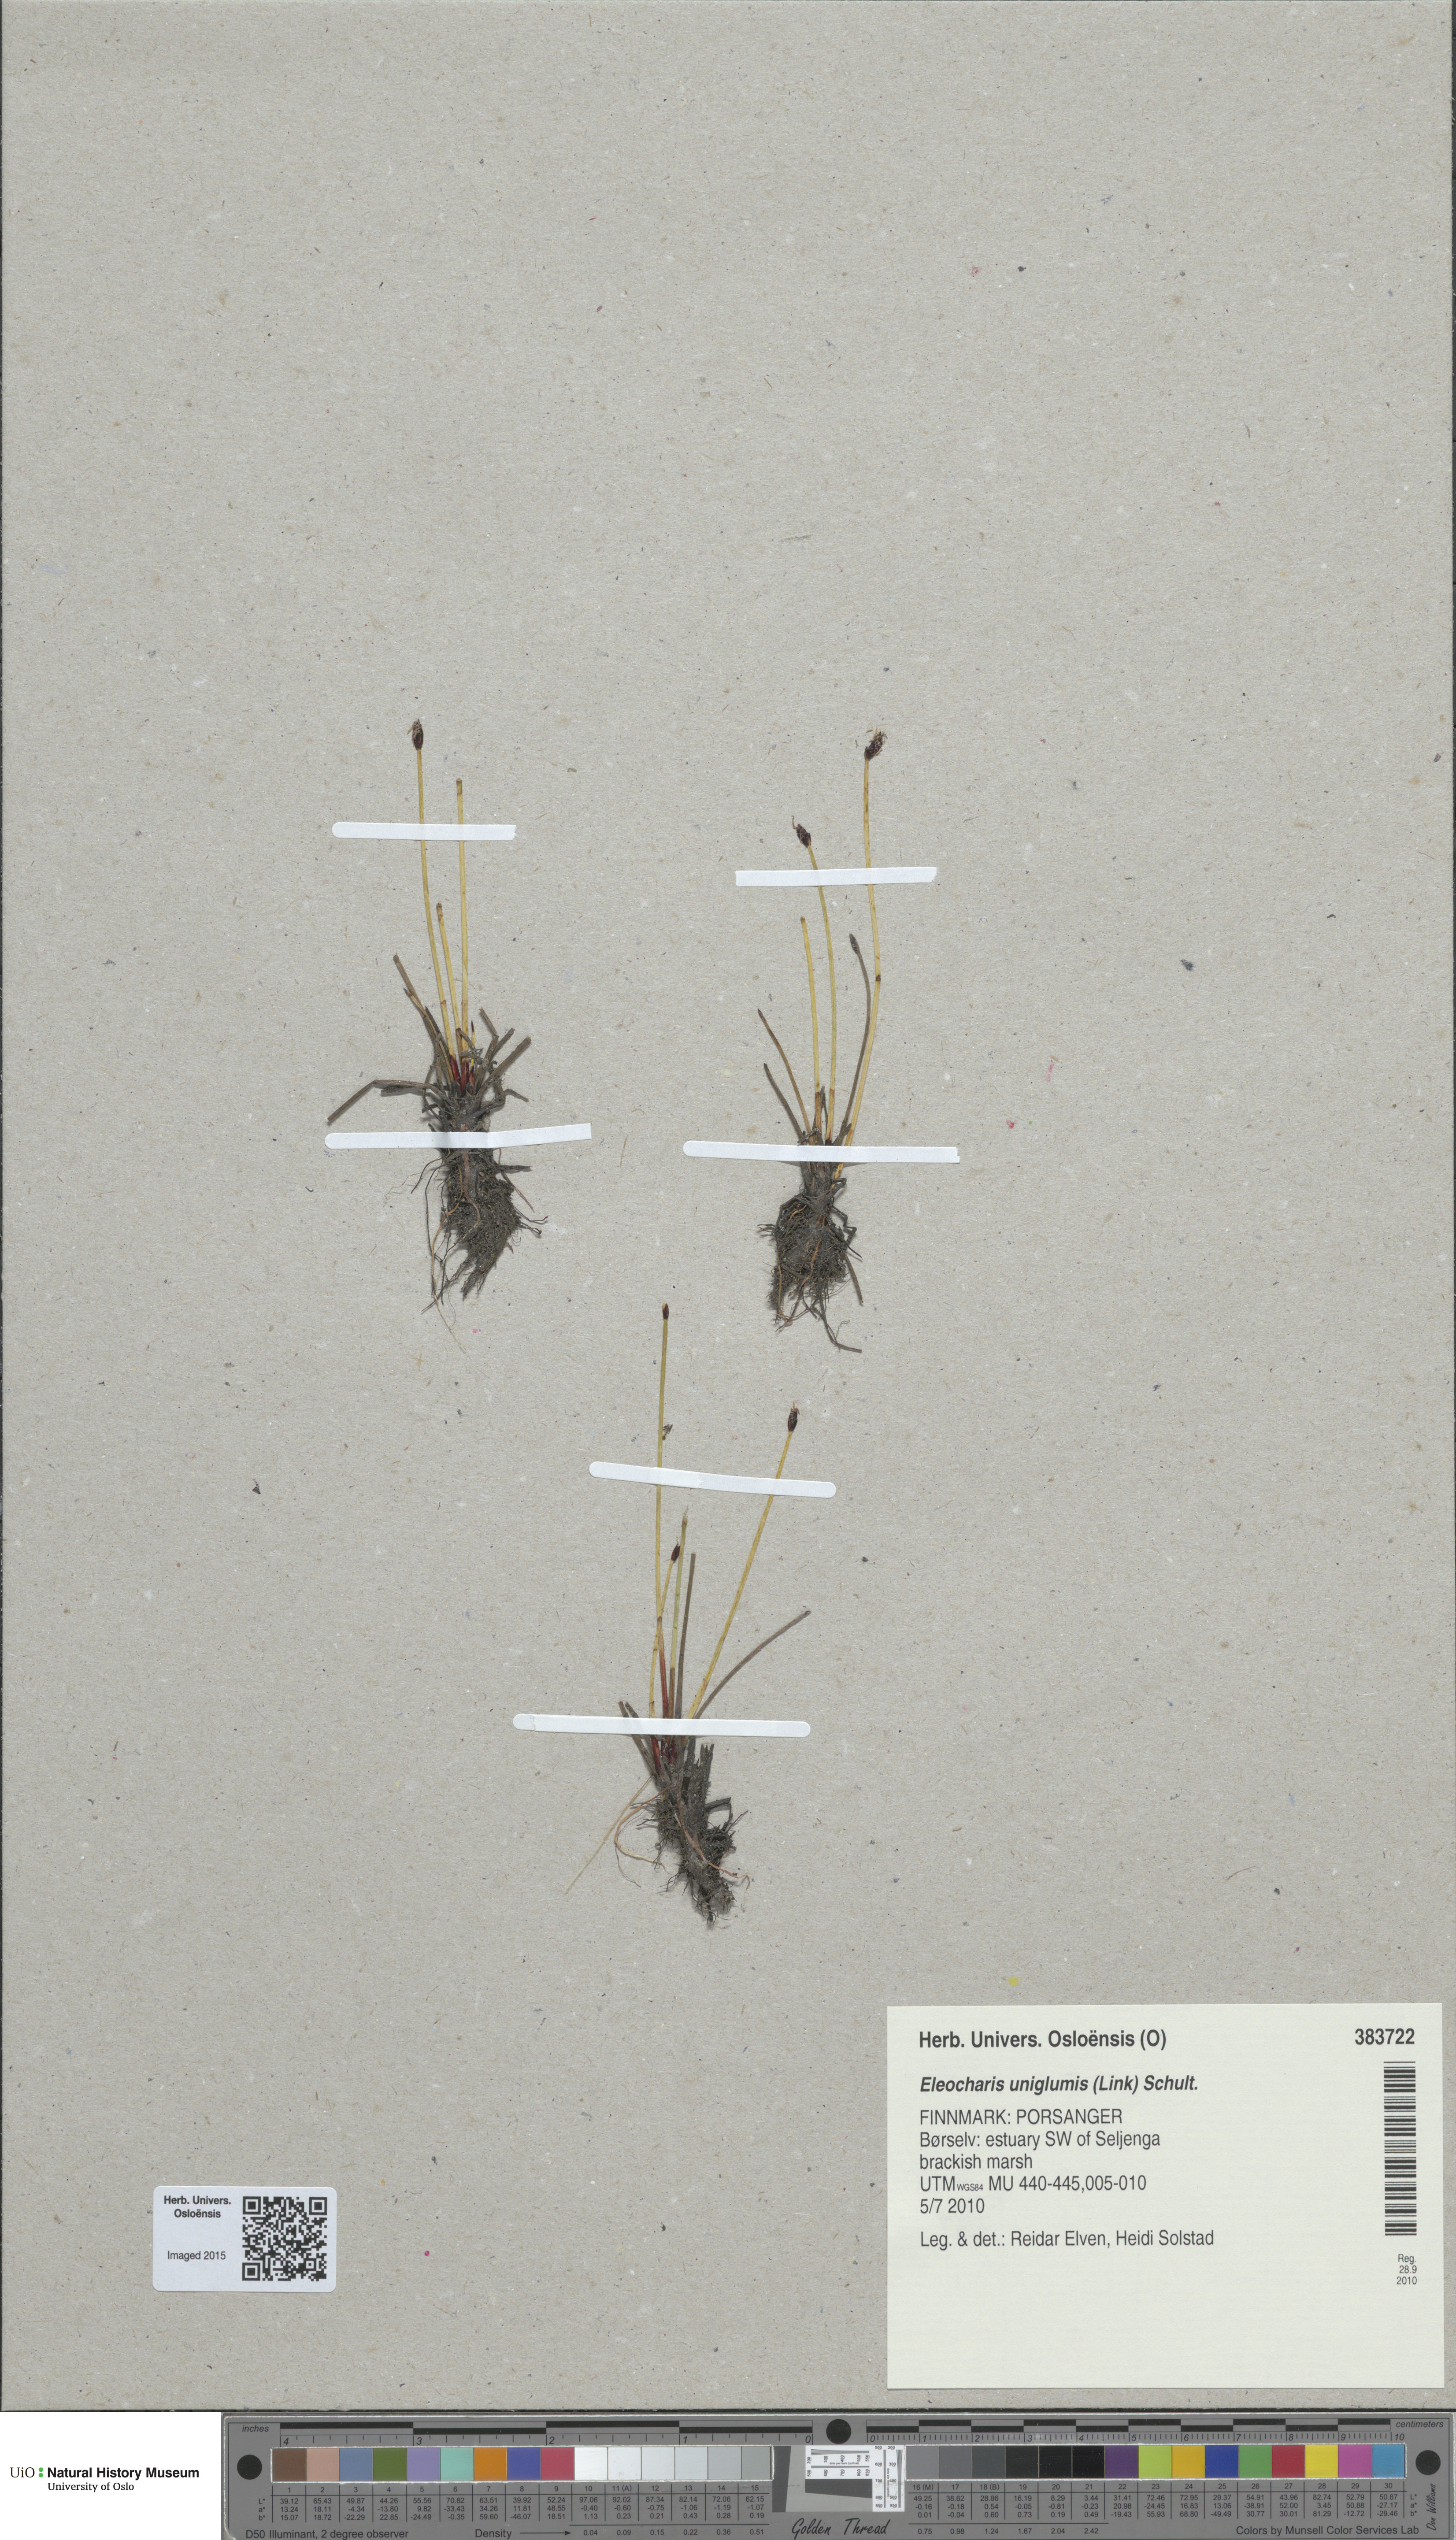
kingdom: Plantae
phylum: Tracheophyta
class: Liliopsida
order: Poales
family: Cyperaceae
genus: Eleocharis
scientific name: Eleocharis uniglumis
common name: Slender spike-rush
